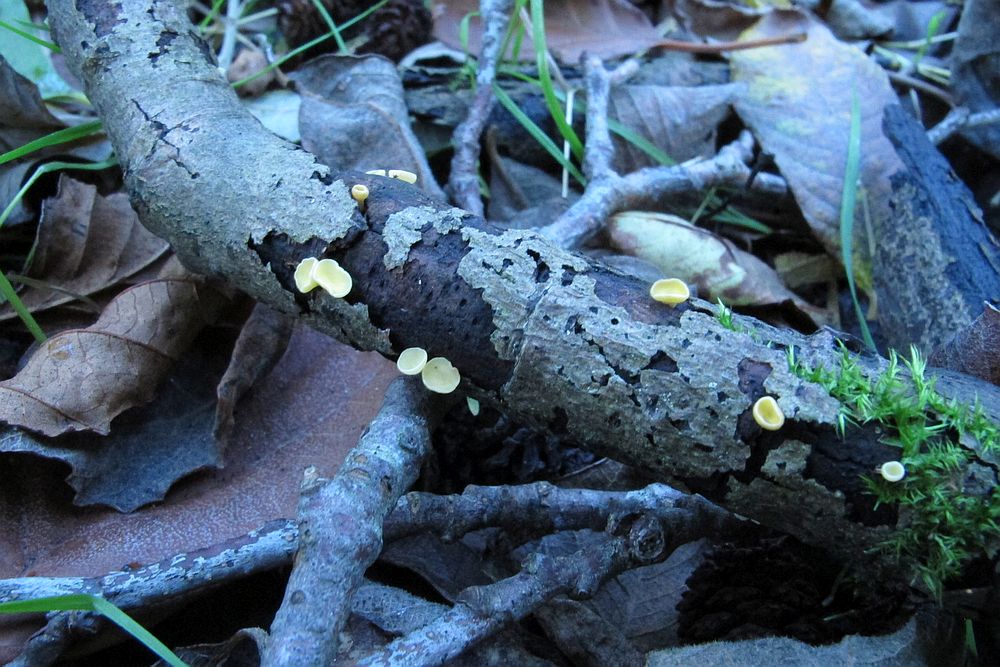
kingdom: Fungi
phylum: Ascomycota
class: Leotiomycetes
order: Helotiales
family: Helotiaceae
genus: Hymenoscyphus
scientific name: Hymenoscyphus calyculus
